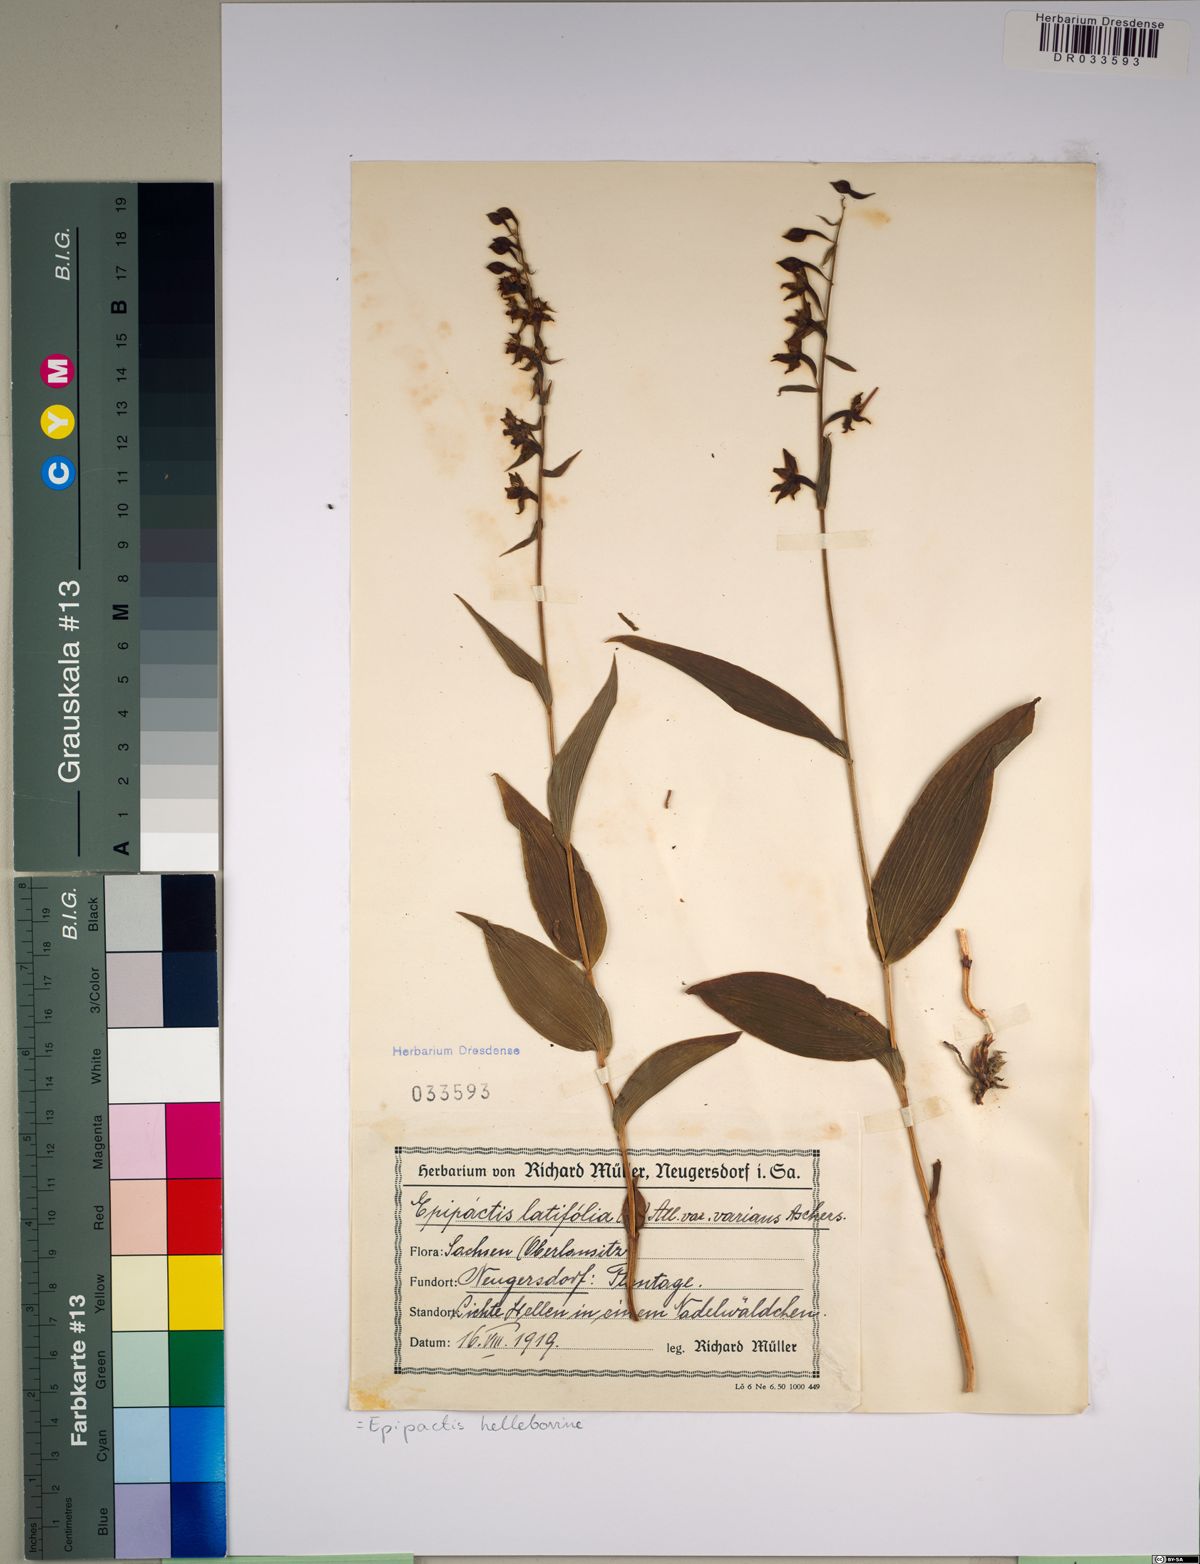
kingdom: Plantae
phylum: Tracheophyta
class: Liliopsida
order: Asparagales
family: Orchidaceae
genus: Epipactis
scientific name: Epipactis helleborine
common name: Broad-leaved helleborine
